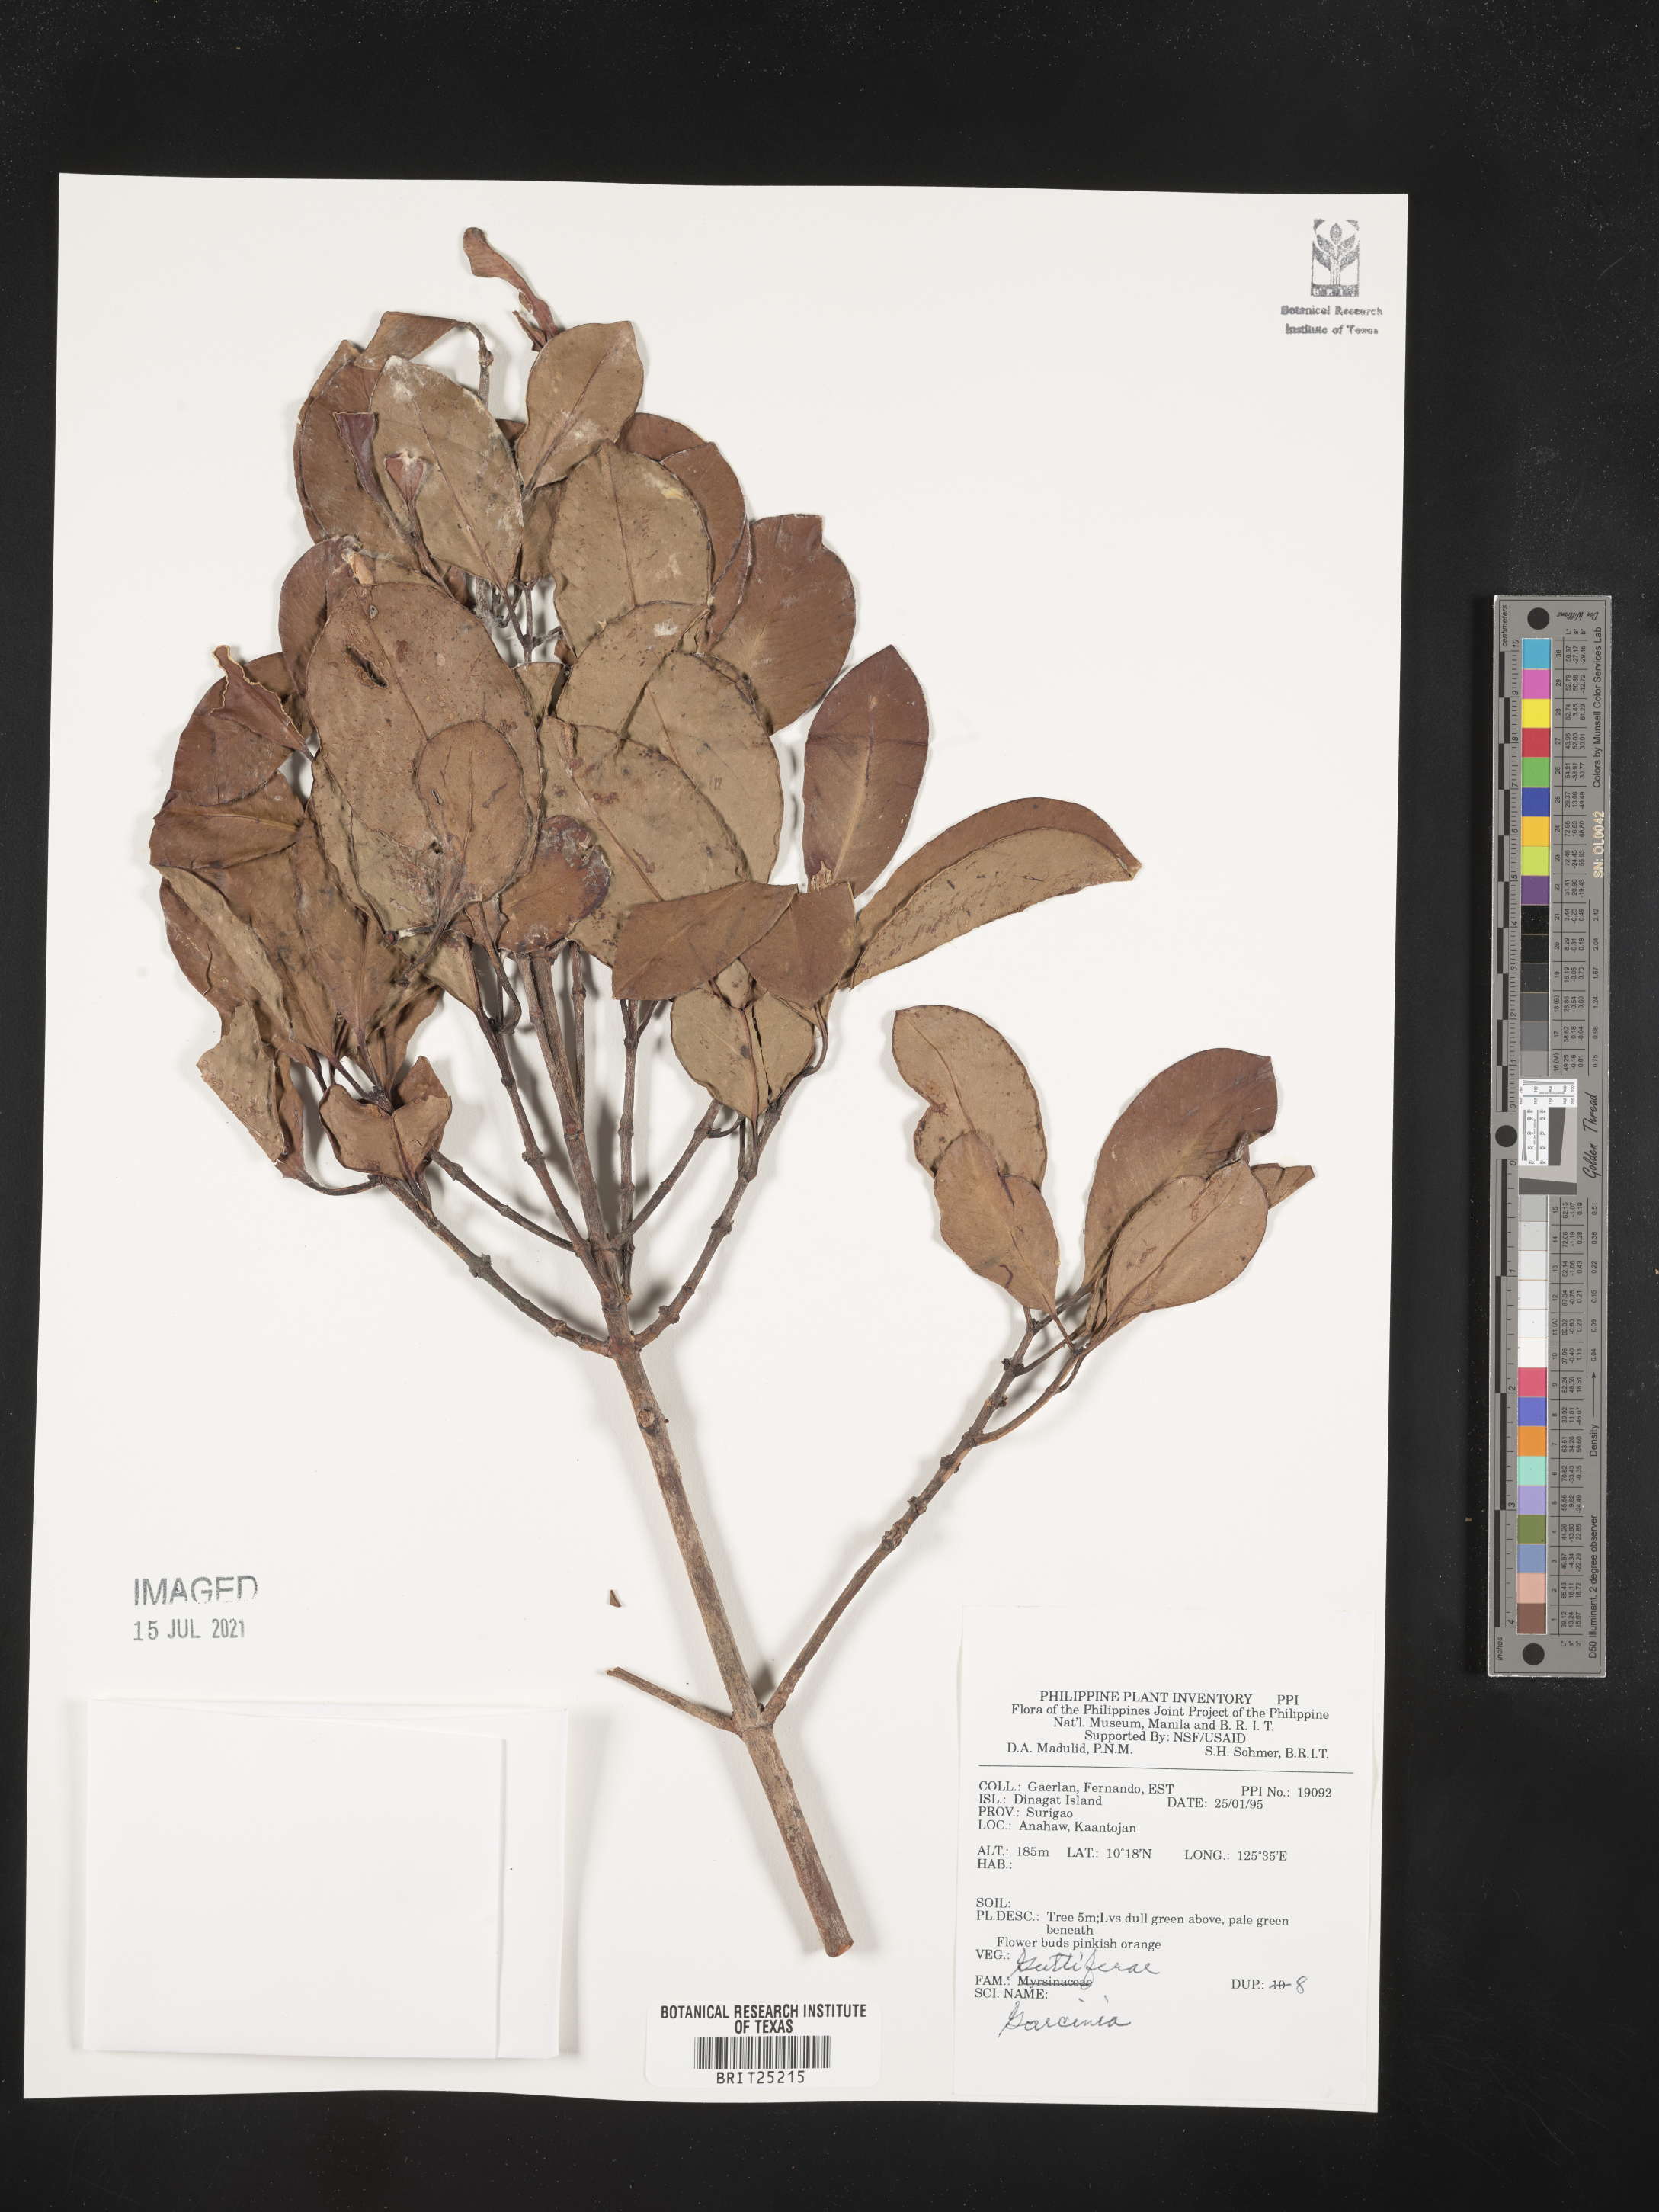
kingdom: Plantae
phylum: Tracheophyta
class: Magnoliopsida
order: Malpighiales
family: Clusiaceae
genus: Garcinia
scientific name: Garcinia
